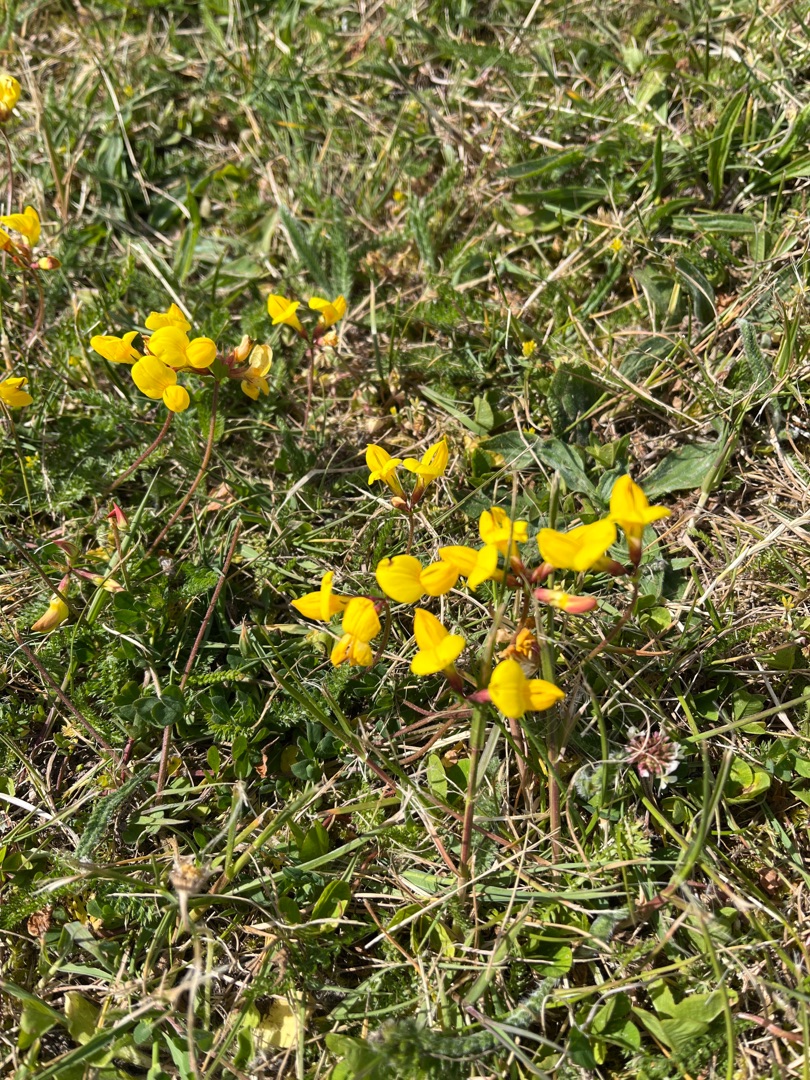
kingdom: Plantae
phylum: Tracheophyta
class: Magnoliopsida
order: Fabales
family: Fabaceae
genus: Lotus
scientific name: Lotus corniculatus
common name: Almindelig kællingetand
